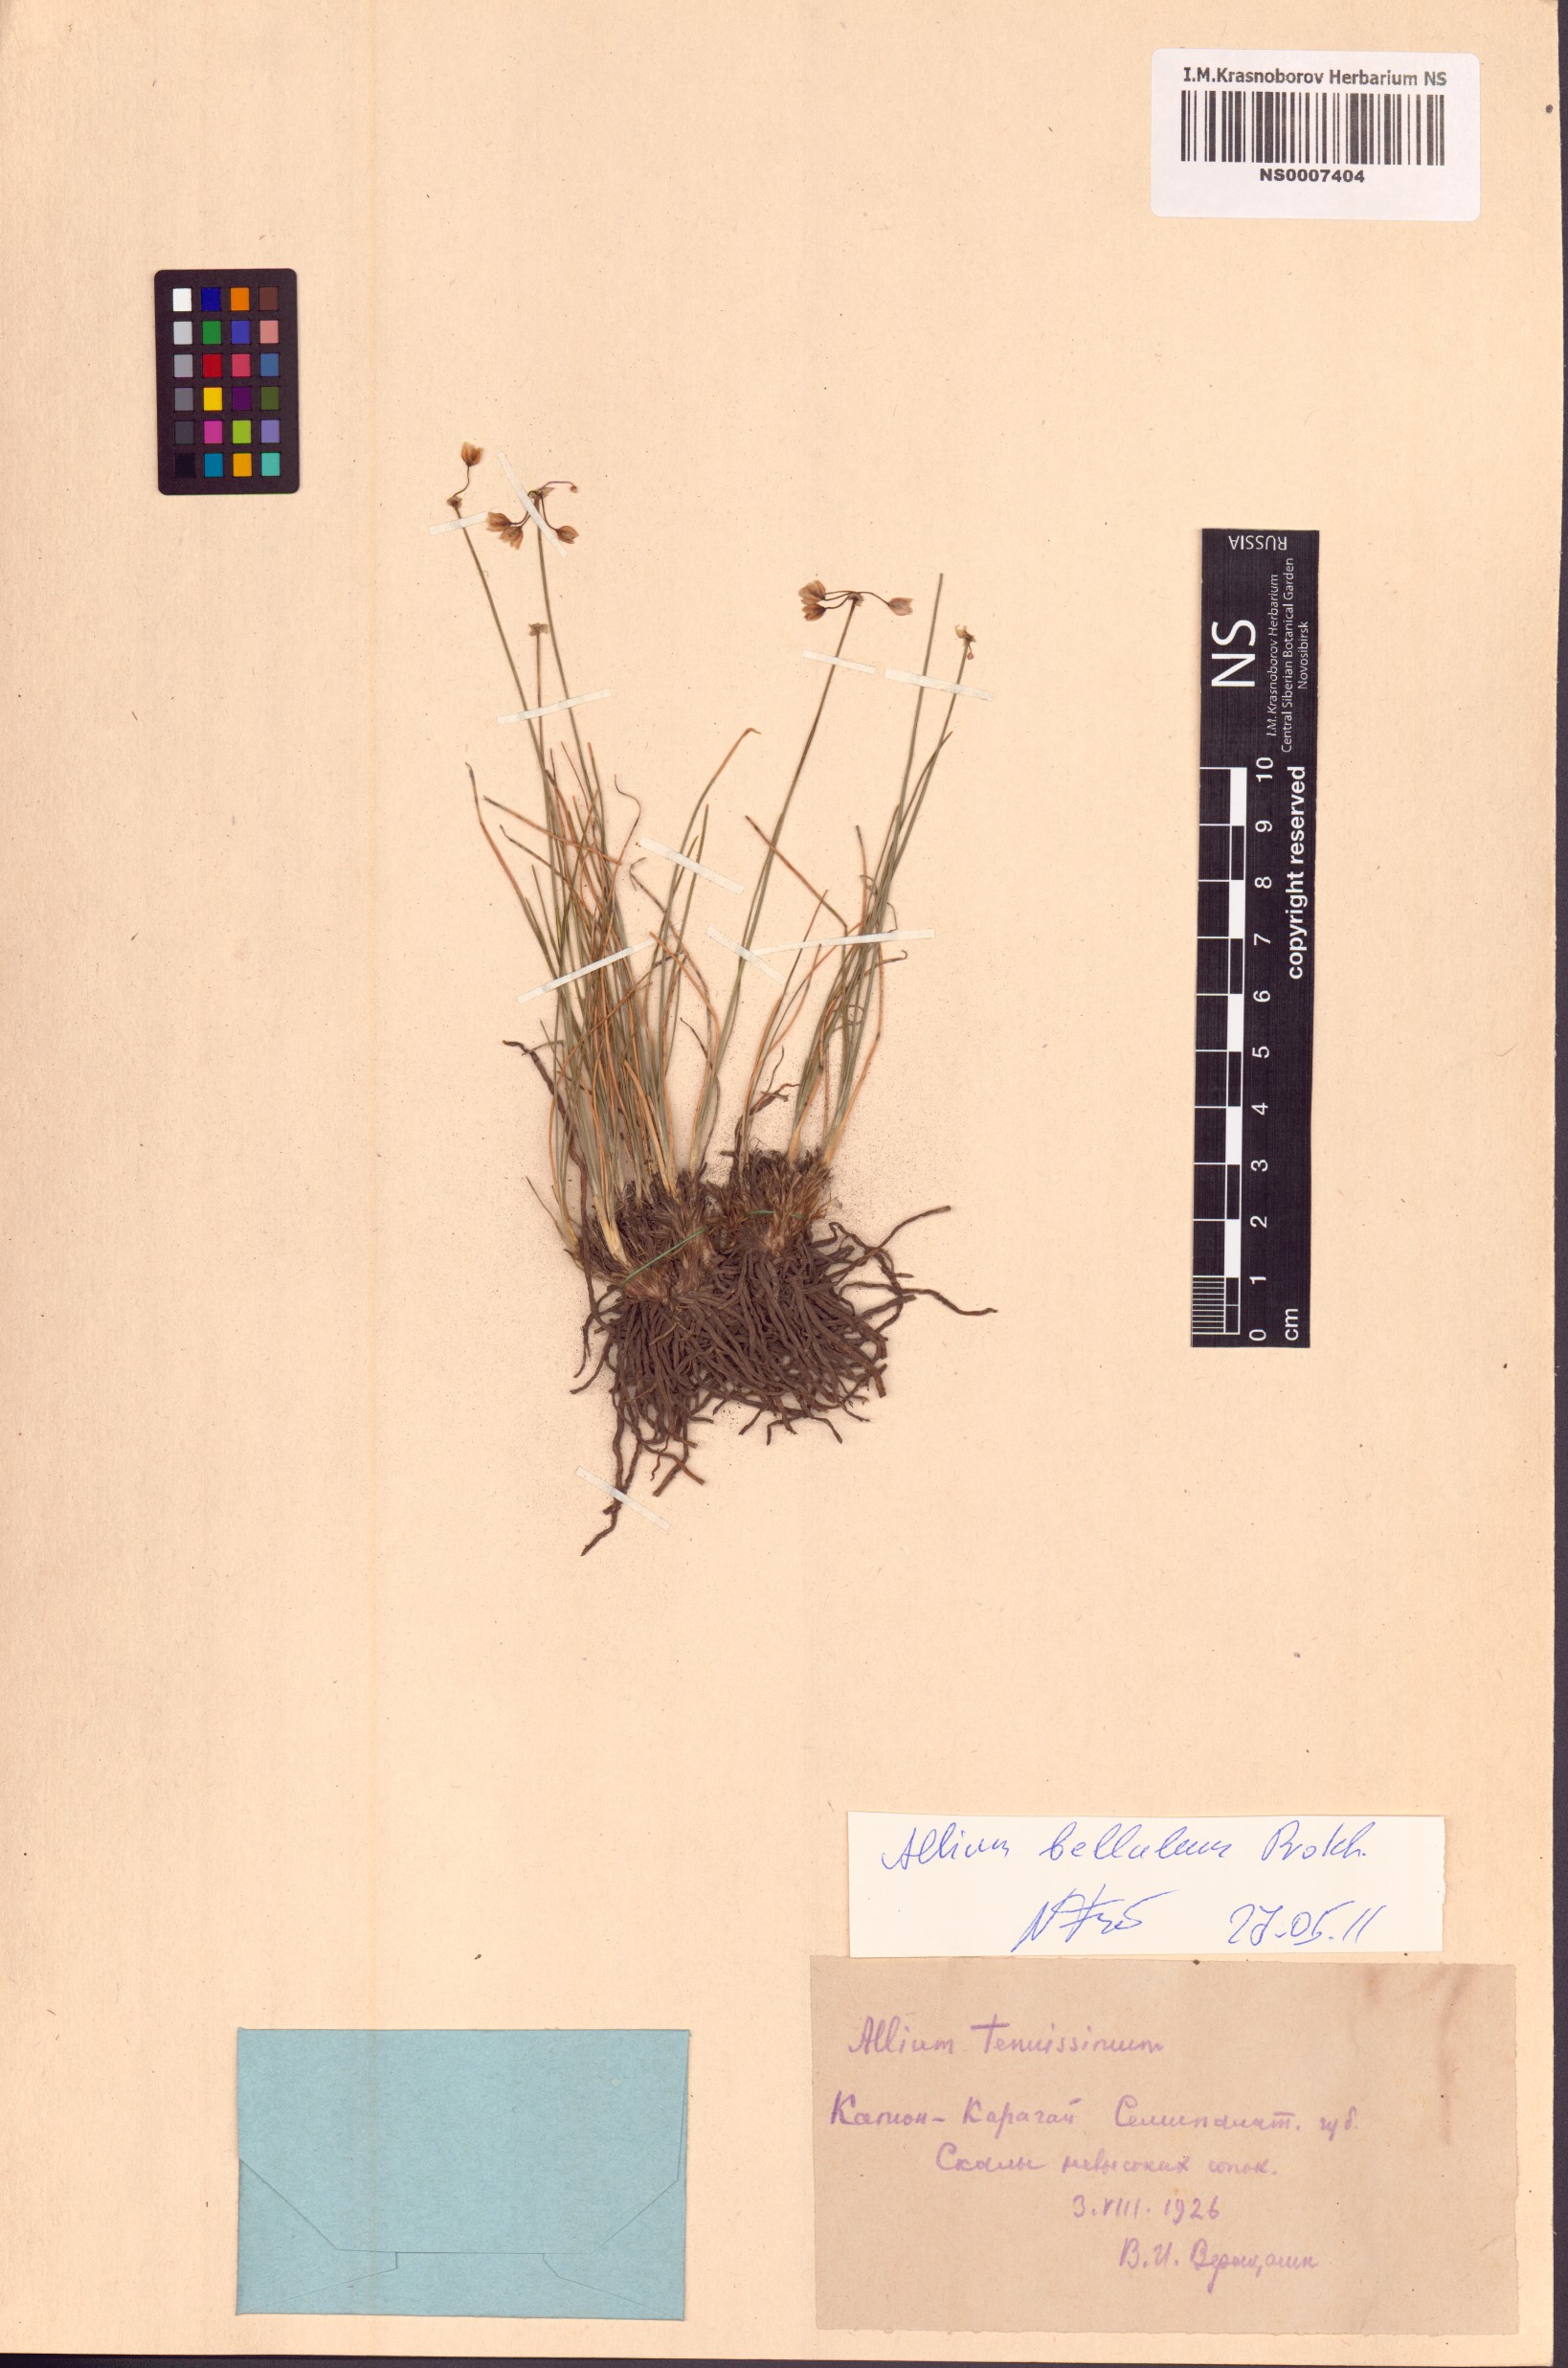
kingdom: Plantae
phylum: Tracheophyta
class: Liliopsida
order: Asparagales
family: Amaryllidaceae
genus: Allium
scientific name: Allium bellulum
